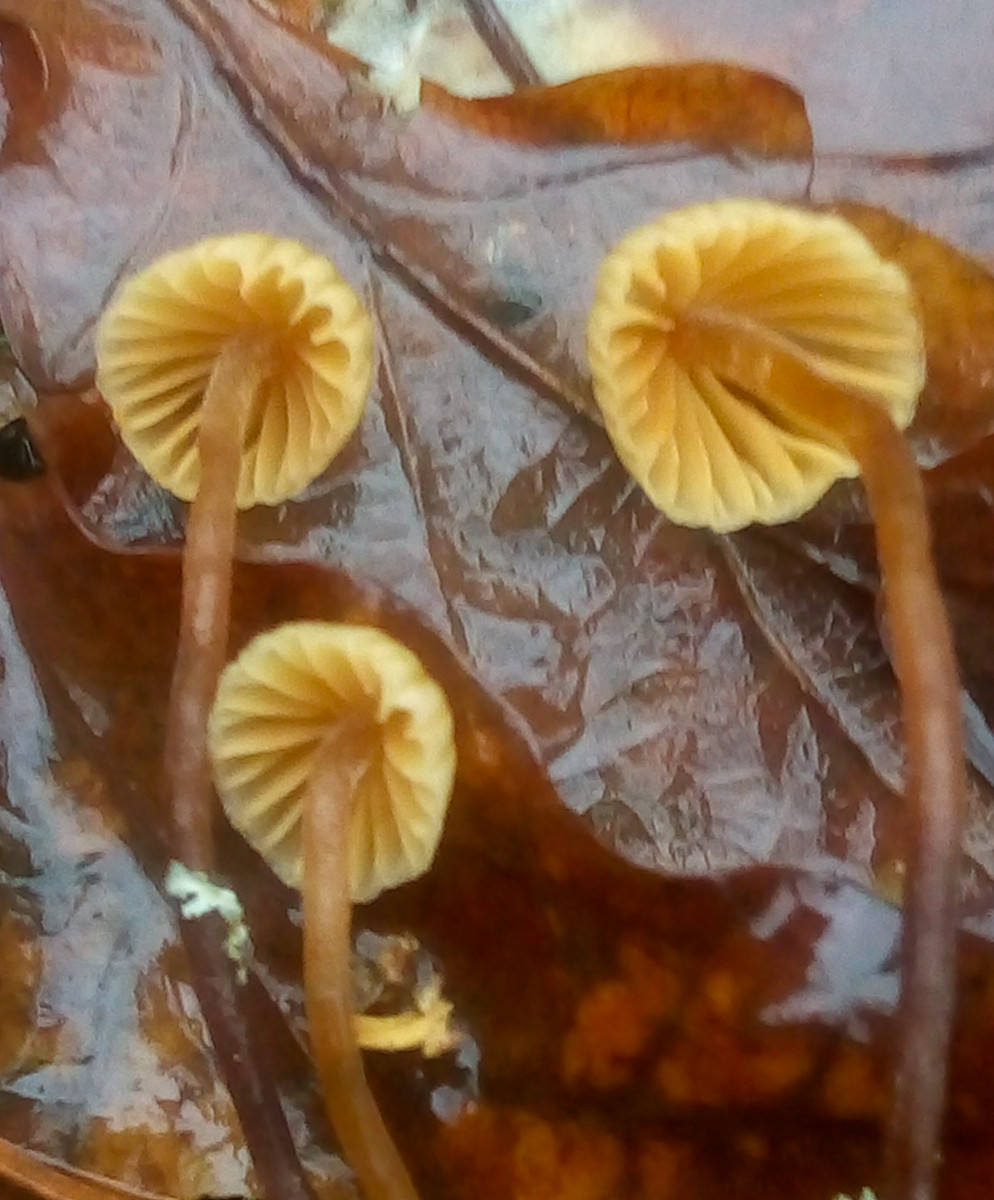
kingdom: Fungi
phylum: Basidiomycota
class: Agaricomycetes
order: Agaricales
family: Hymenogastraceae
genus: Galerina
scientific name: Galerina vittiformis
